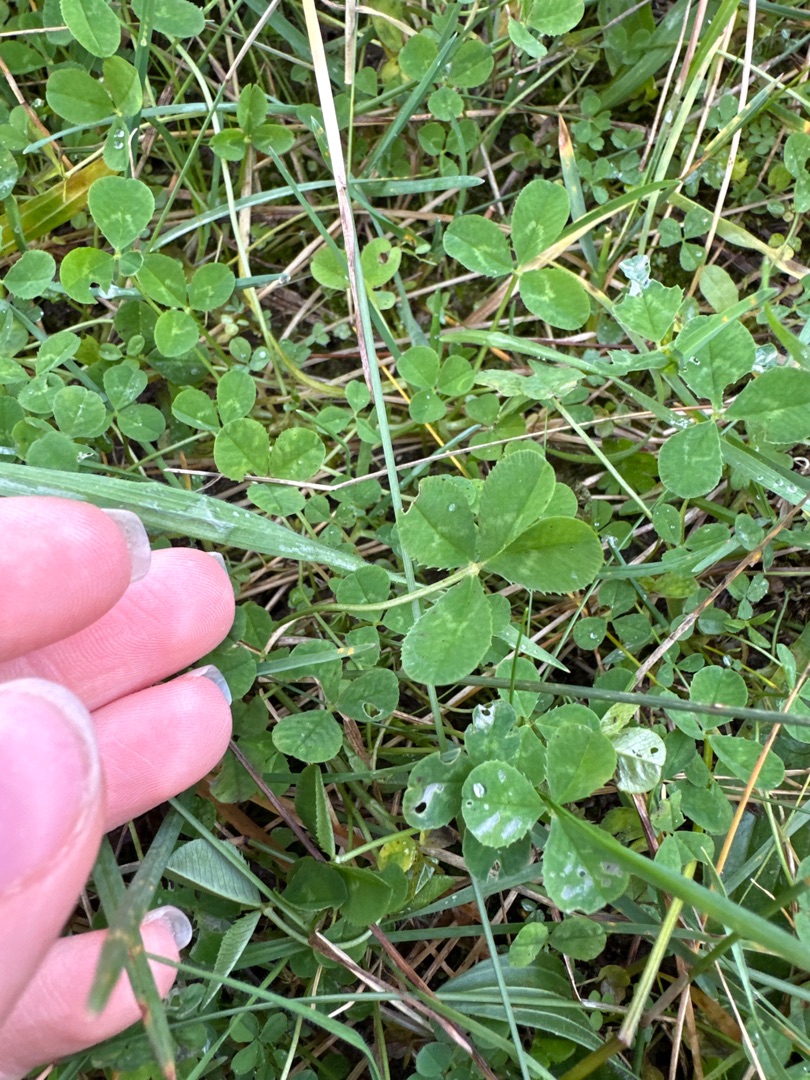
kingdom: Plantae
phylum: Tracheophyta
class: Magnoliopsida
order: Fabales
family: Fabaceae
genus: Trifolium
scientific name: Trifolium repens
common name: Hvid-kløver
